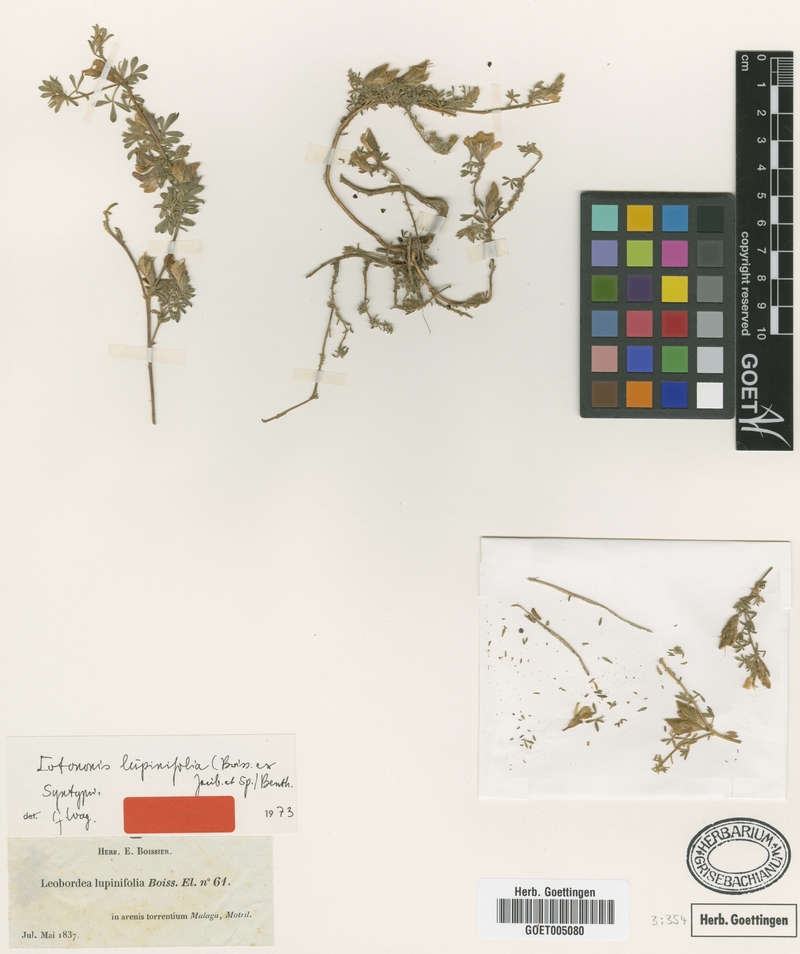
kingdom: Plantae
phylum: Tracheophyta
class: Magnoliopsida
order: Fabales
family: Fabaceae
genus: Leobordea
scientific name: Leobordea lupinifolia
